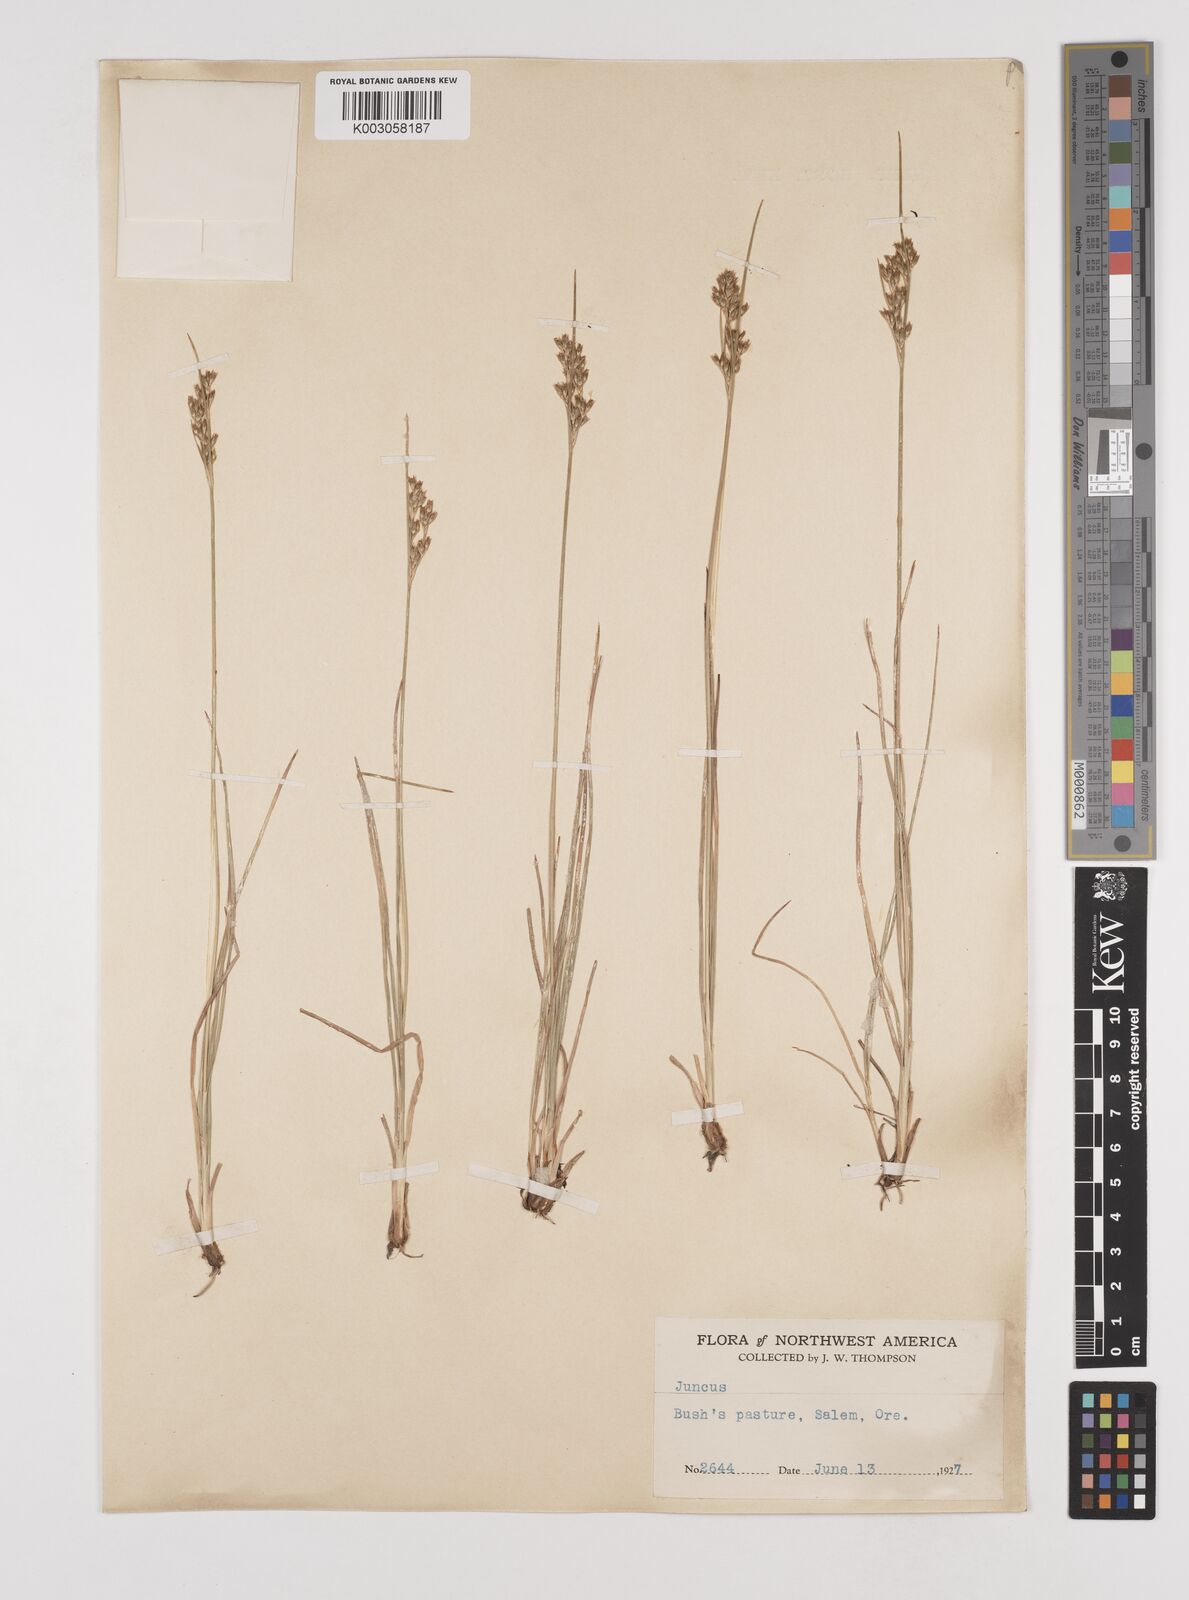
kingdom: Plantae
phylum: Tracheophyta
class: Liliopsida
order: Poales
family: Juncaceae
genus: Juncus
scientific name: Juncus
